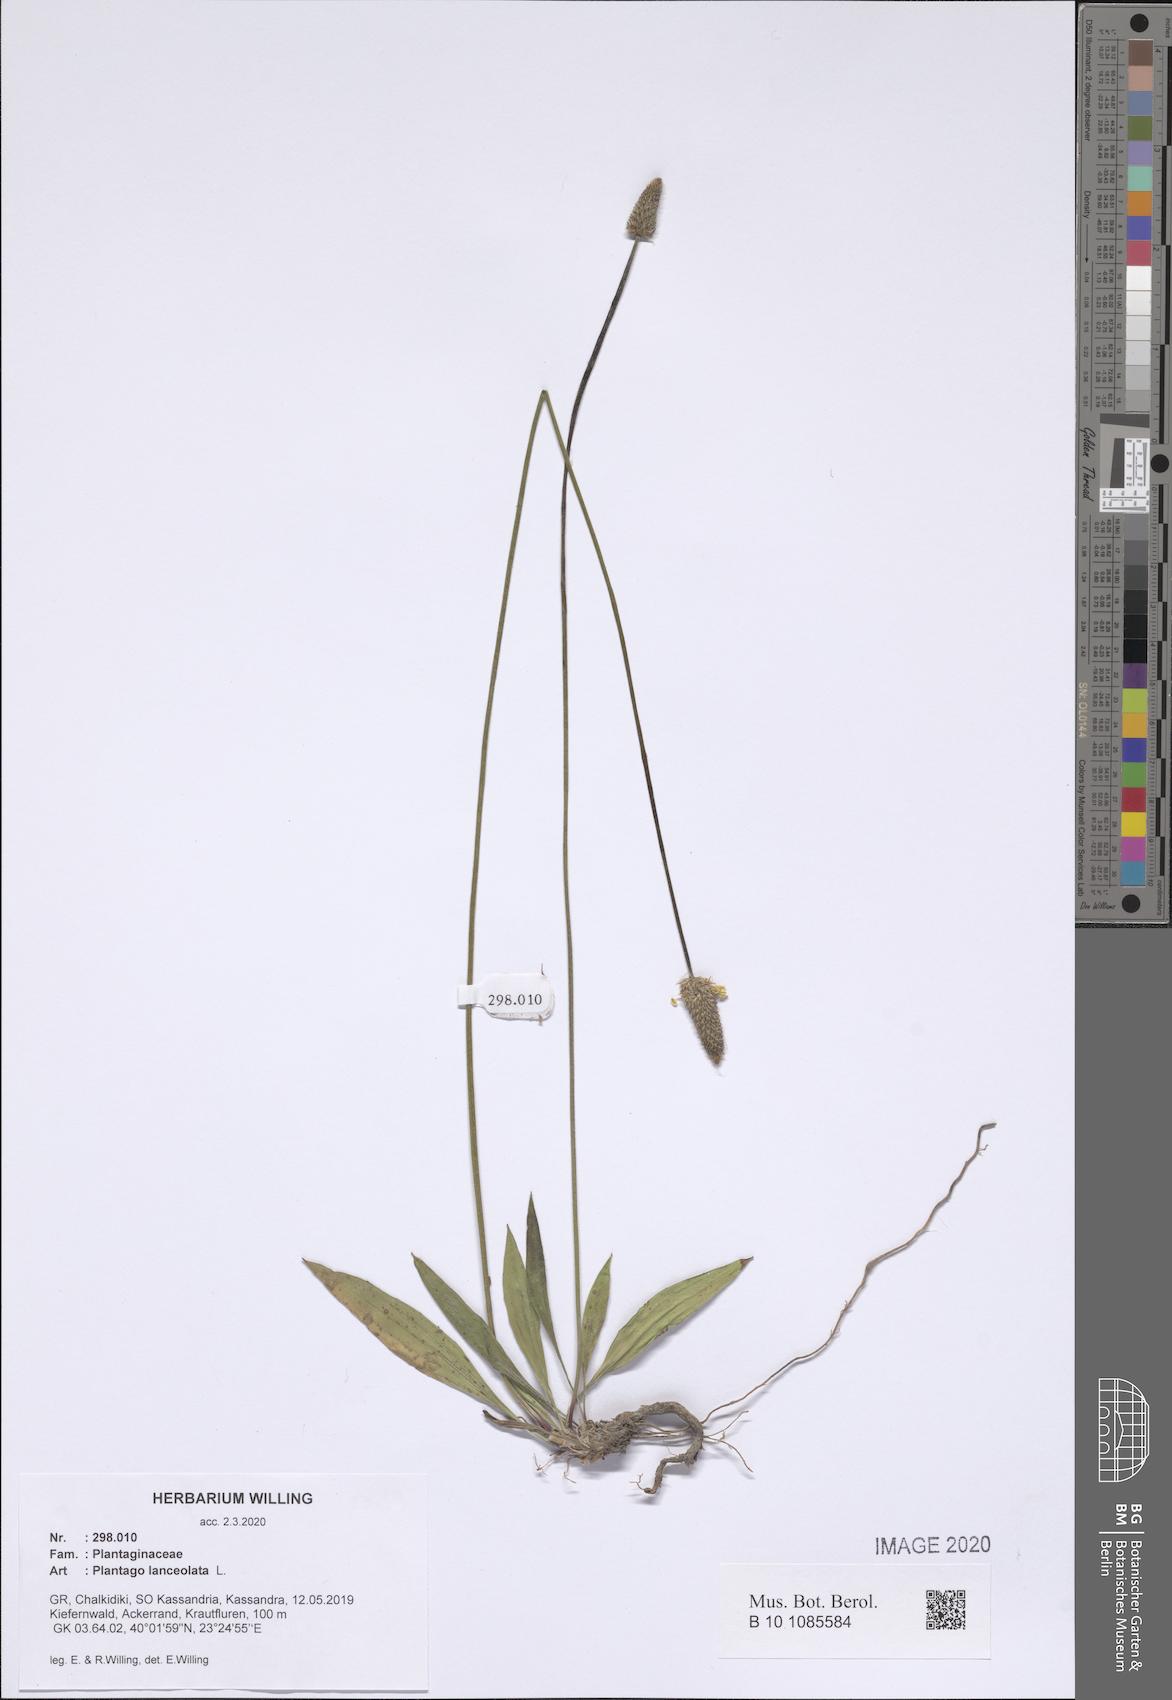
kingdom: Plantae
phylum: Tracheophyta
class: Magnoliopsida
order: Lamiales
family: Plantaginaceae
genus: Plantago
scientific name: Plantago lanceolata
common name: Ribwort plantain
